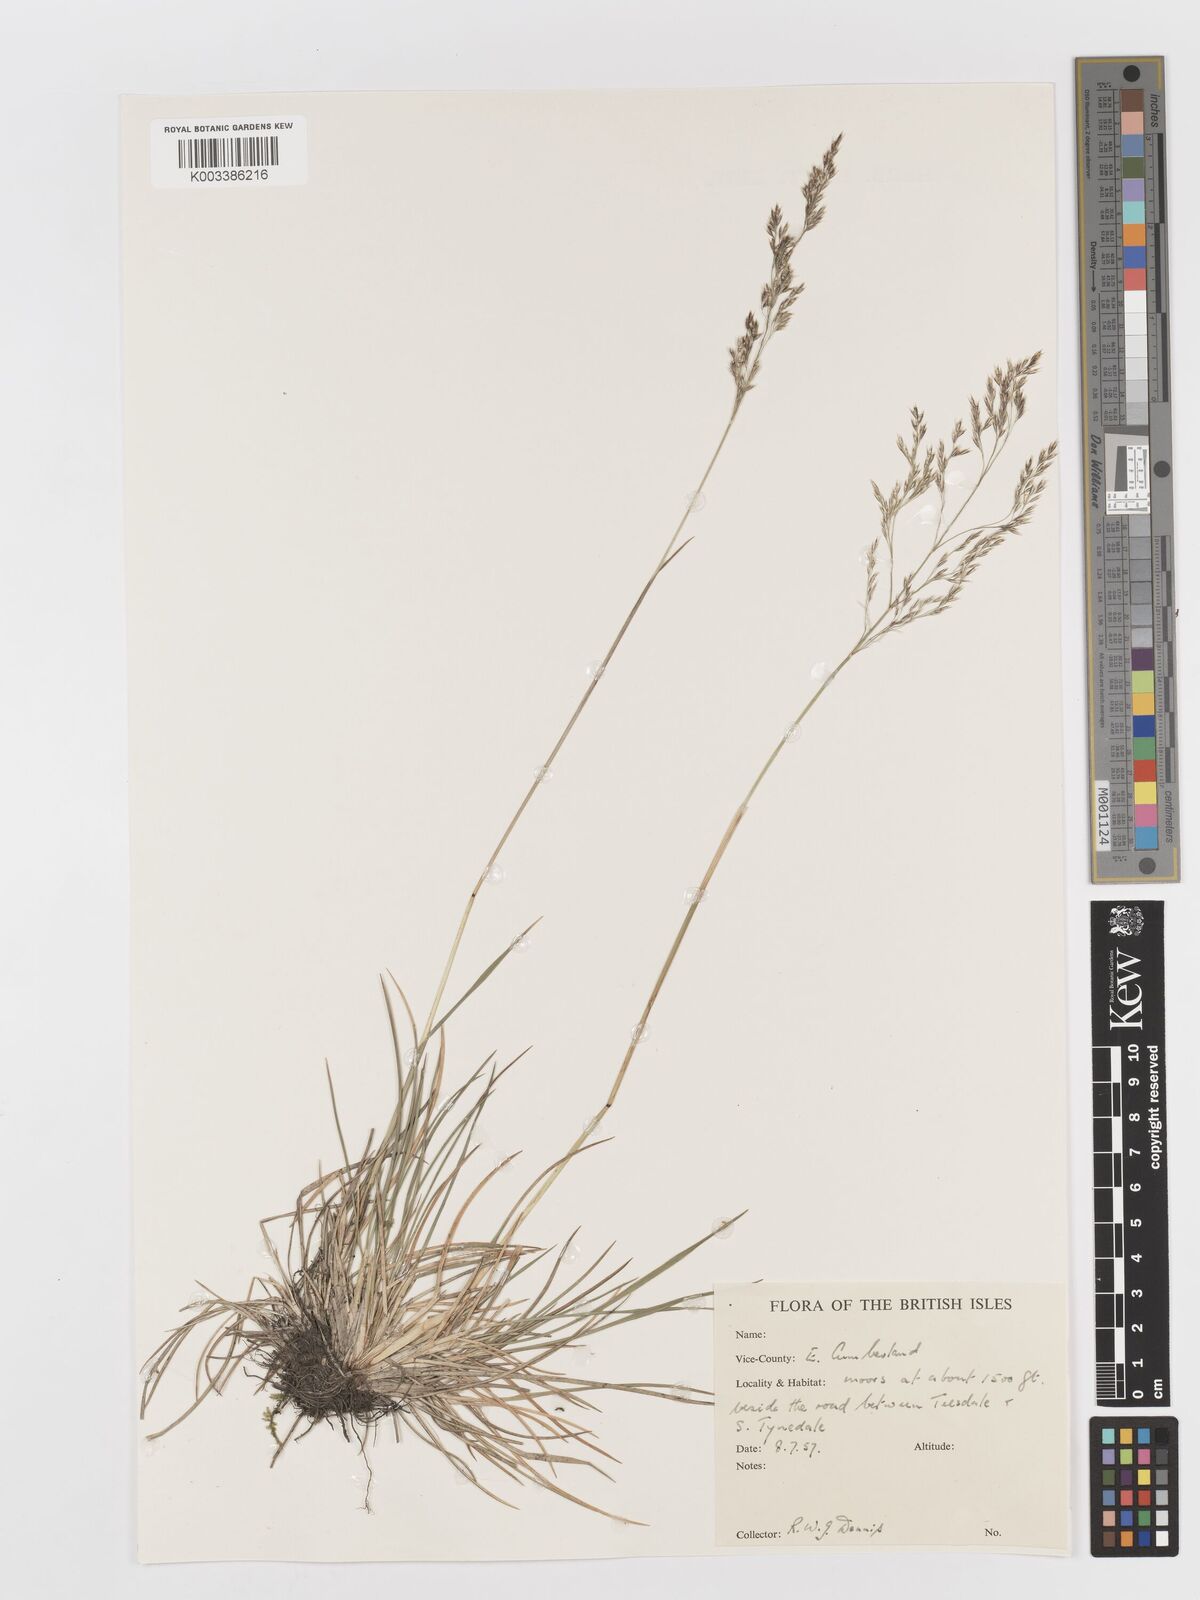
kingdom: Plantae
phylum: Tracheophyta
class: Liliopsida
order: Poales
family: Poaceae
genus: Deschampsia
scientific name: Deschampsia
